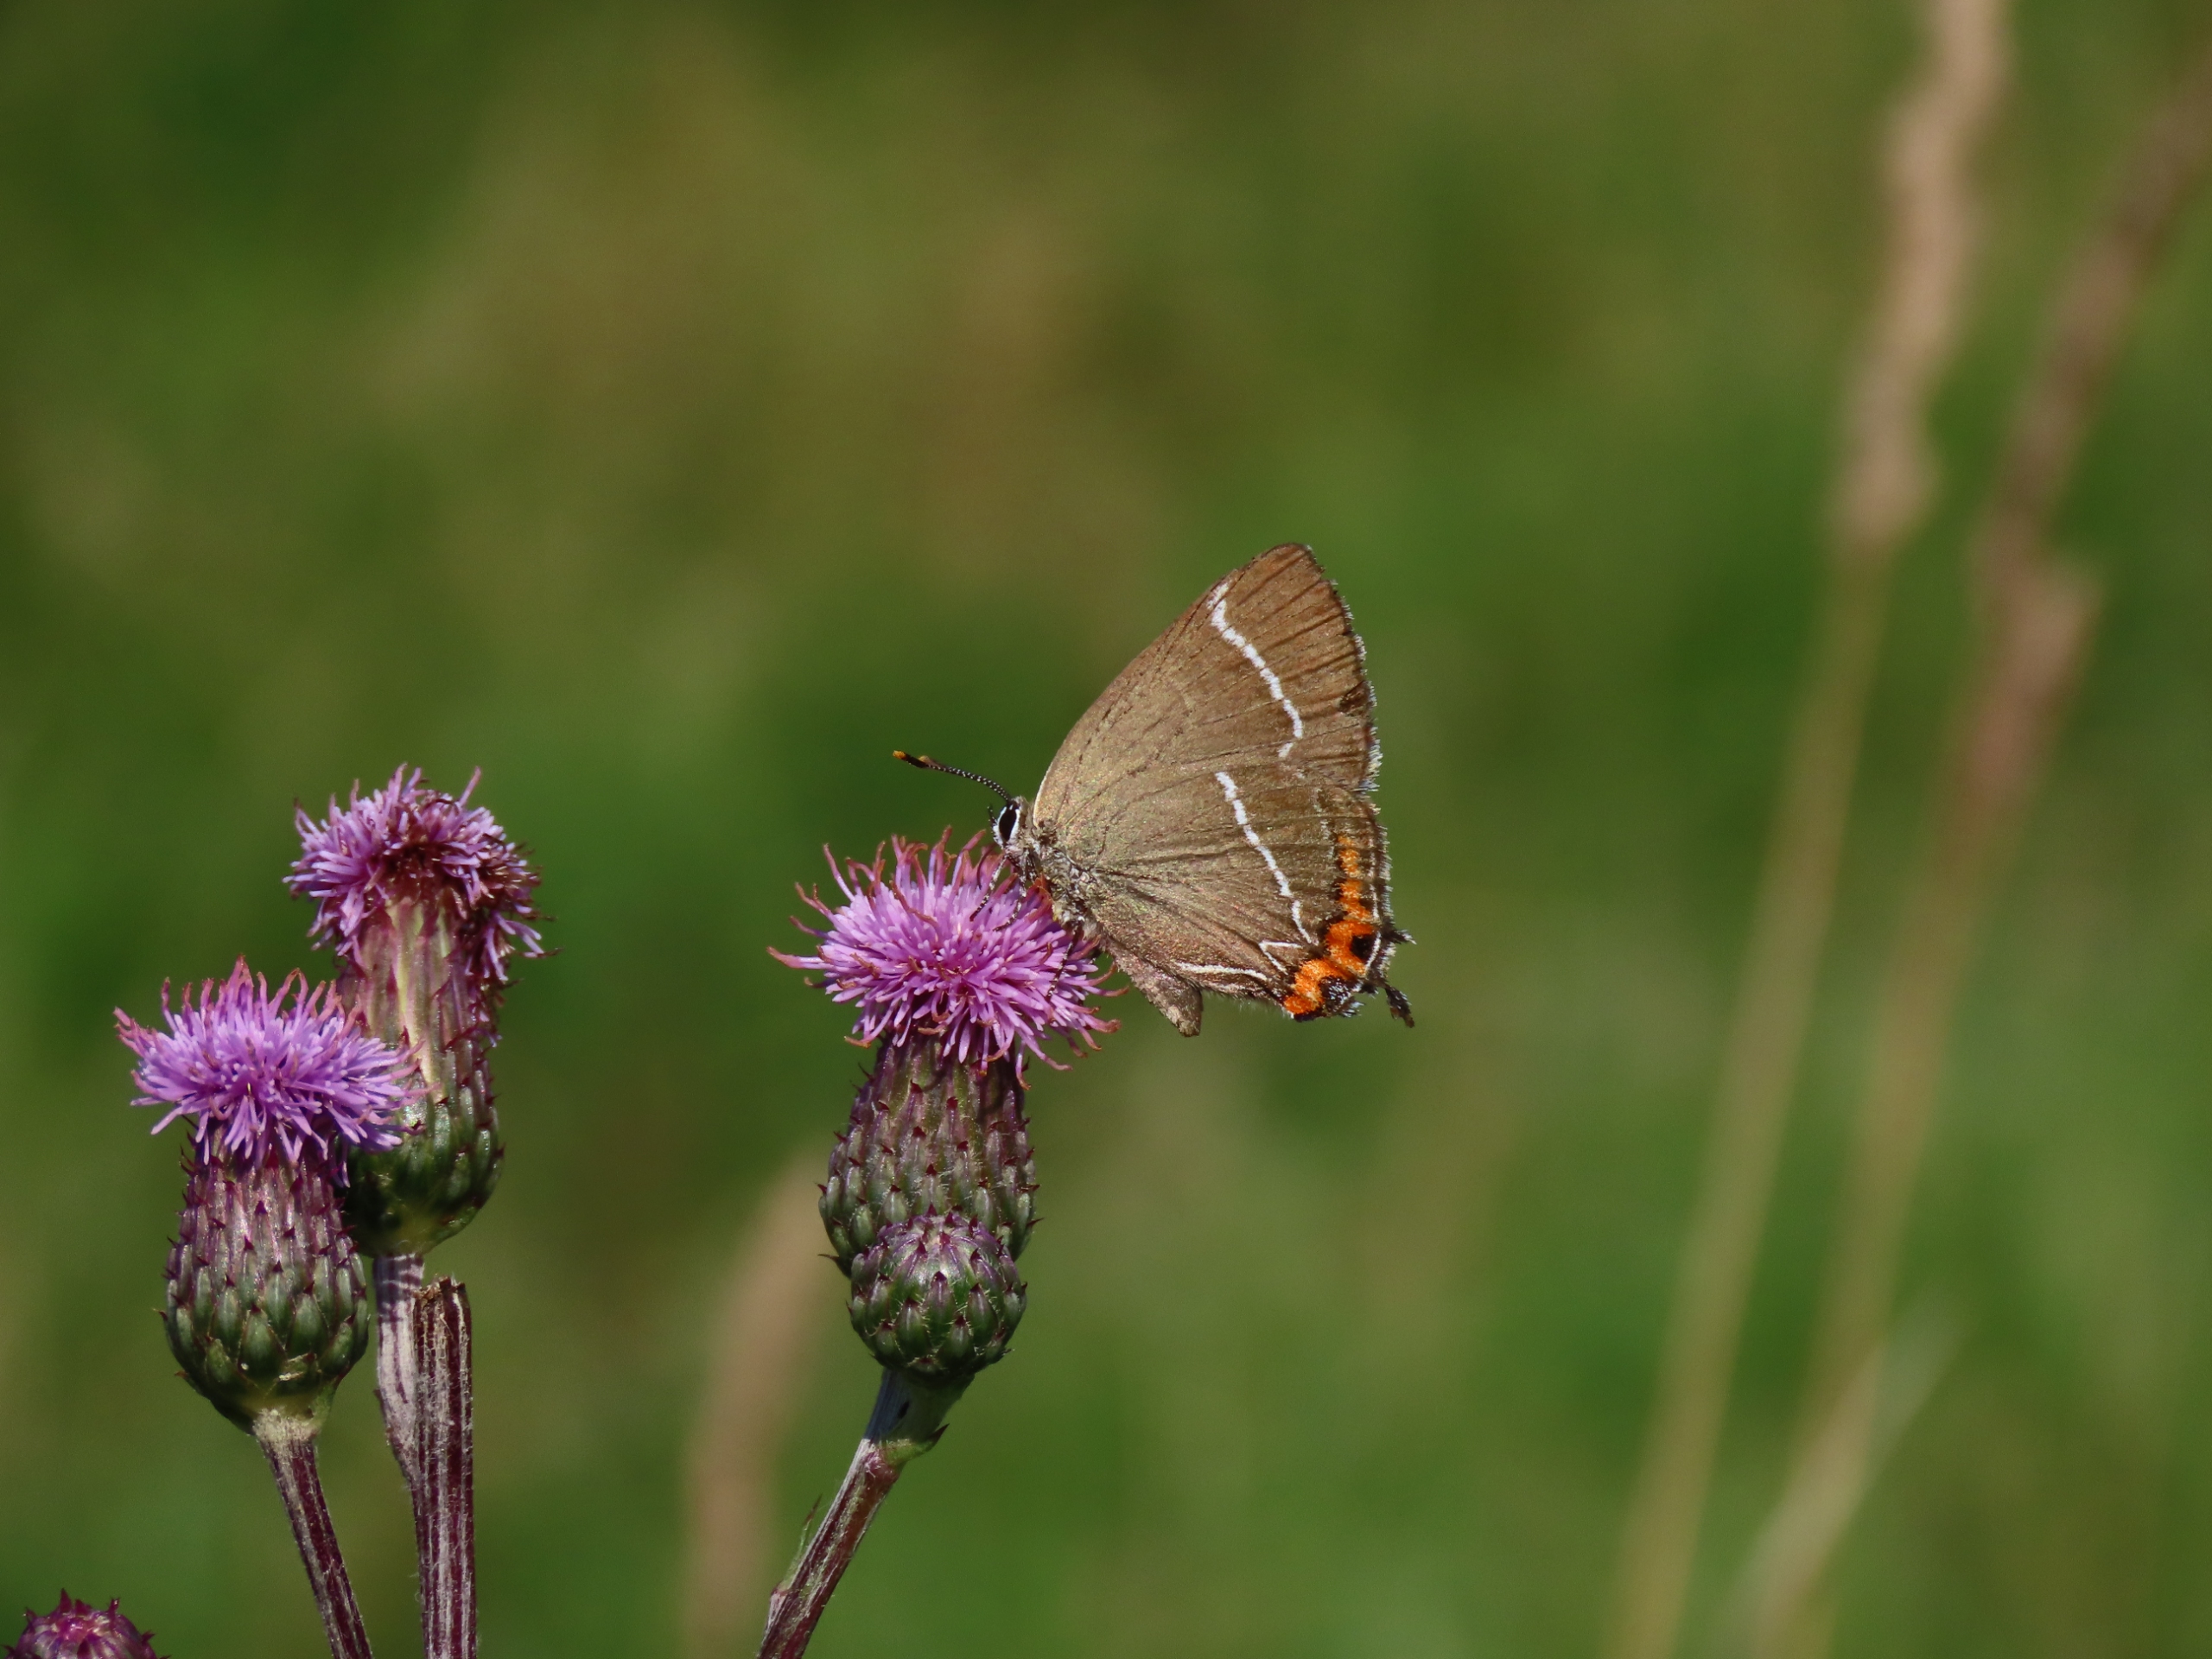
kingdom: Animalia
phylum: Arthropoda
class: Insecta
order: Lepidoptera
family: Lycaenidae
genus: Satyrium
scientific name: Satyrium w-album
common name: Det hvide W
